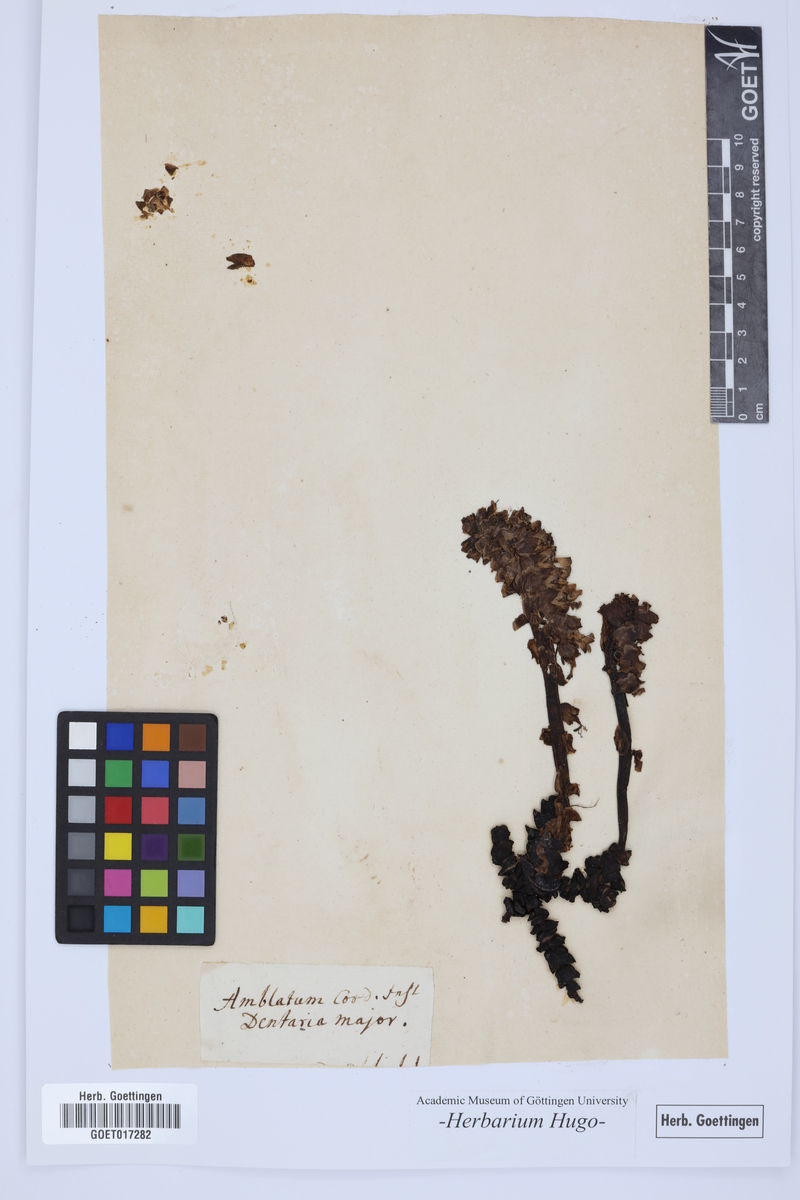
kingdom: Plantae
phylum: Tracheophyta
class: Magnoliopsida
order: Lamiales
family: Orobanchaceae
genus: Lathraea
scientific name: Lathraea squamaria
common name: Toothwort
